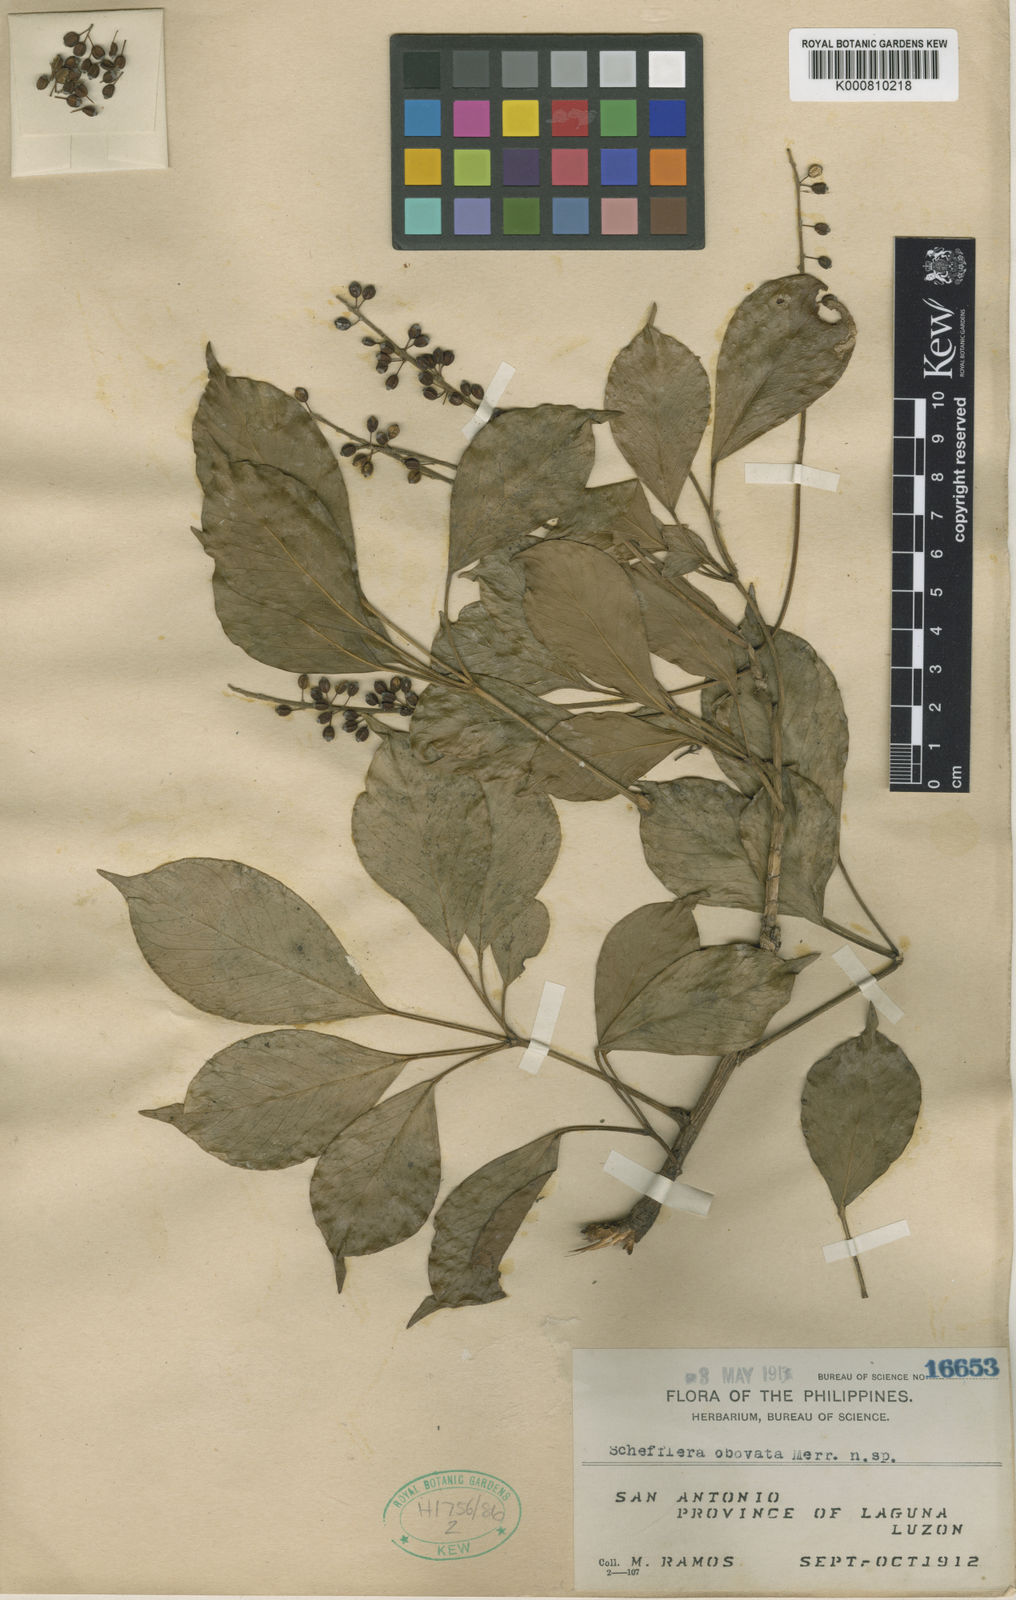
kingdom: Plantae
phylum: Tracheophyta
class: Magnoliopsida
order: Apiales
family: Araliaceae
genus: Heptapleurum
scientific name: Heptapleurum philippinense
